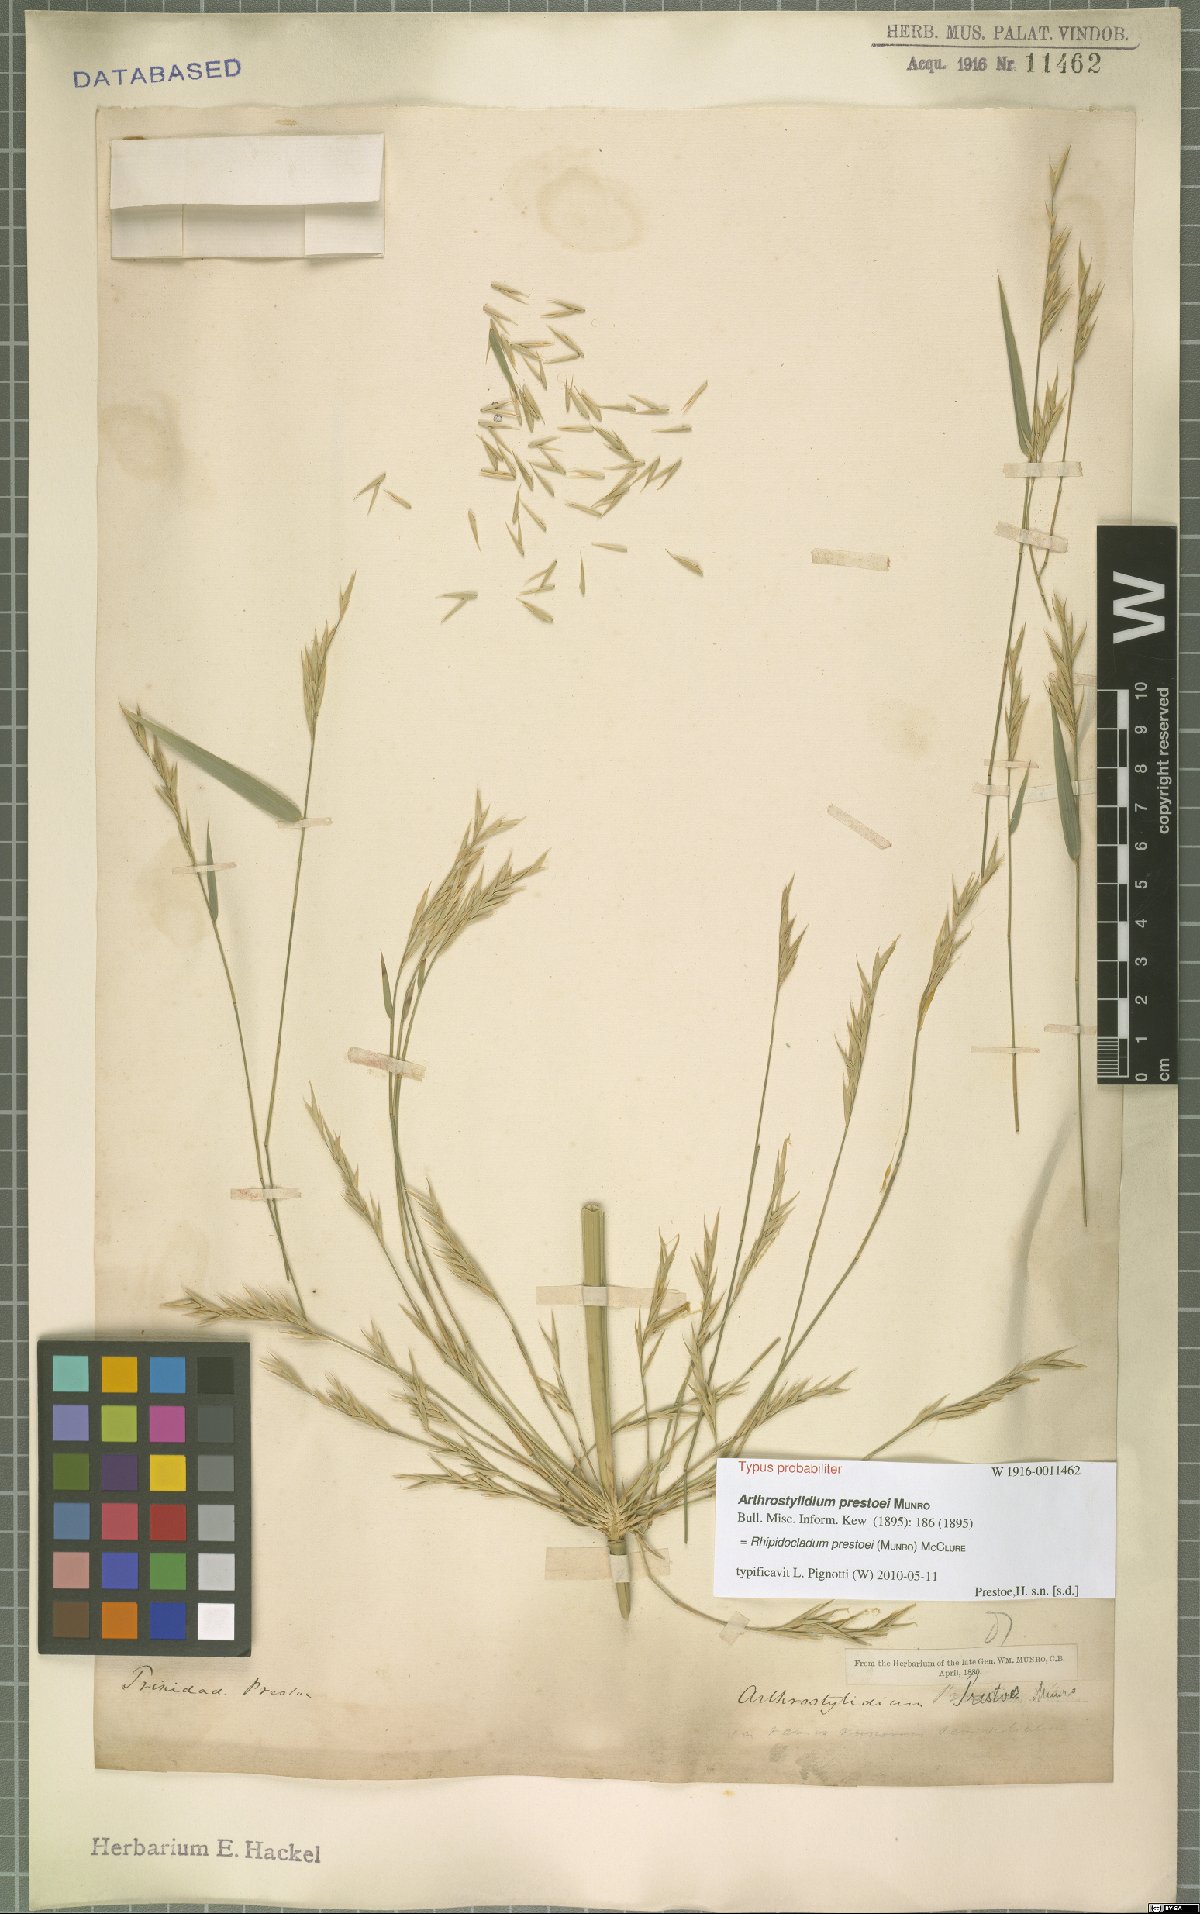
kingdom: Plantae
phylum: Tracheophyta
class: Liliopsida
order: Poales
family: Poaceae
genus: Rhipidocladum
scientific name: Rhipidocladum prestoei
